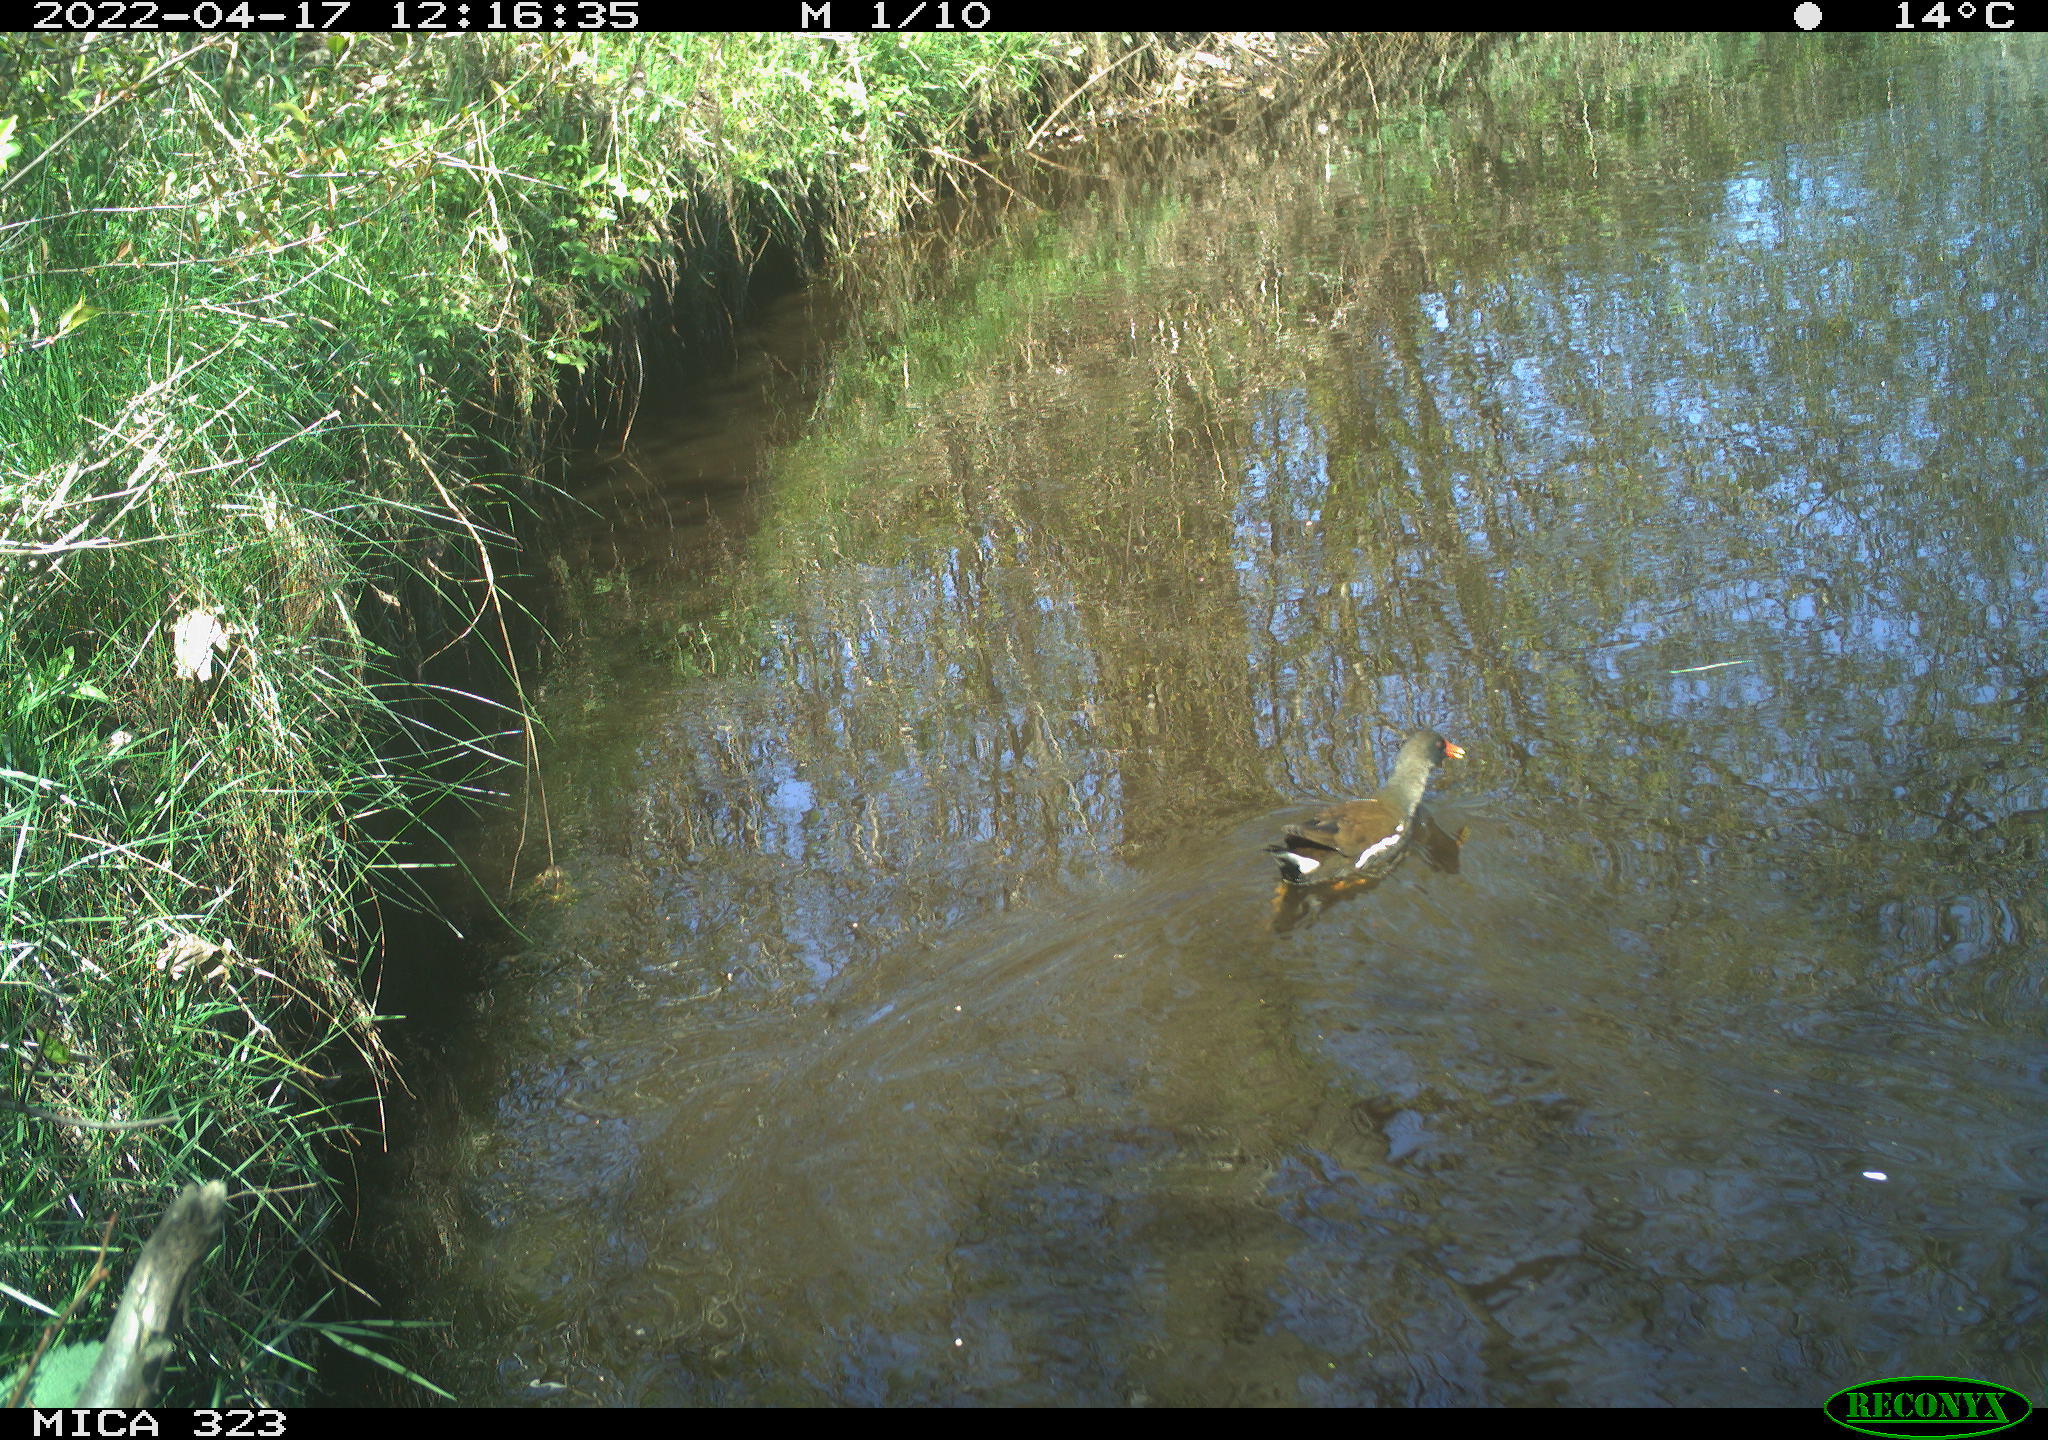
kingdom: Animalia
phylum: Chordata
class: Aves
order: Gruiformes
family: Rallidae
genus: Gallinula
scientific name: Gallinula chloropus
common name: Common moorhen
